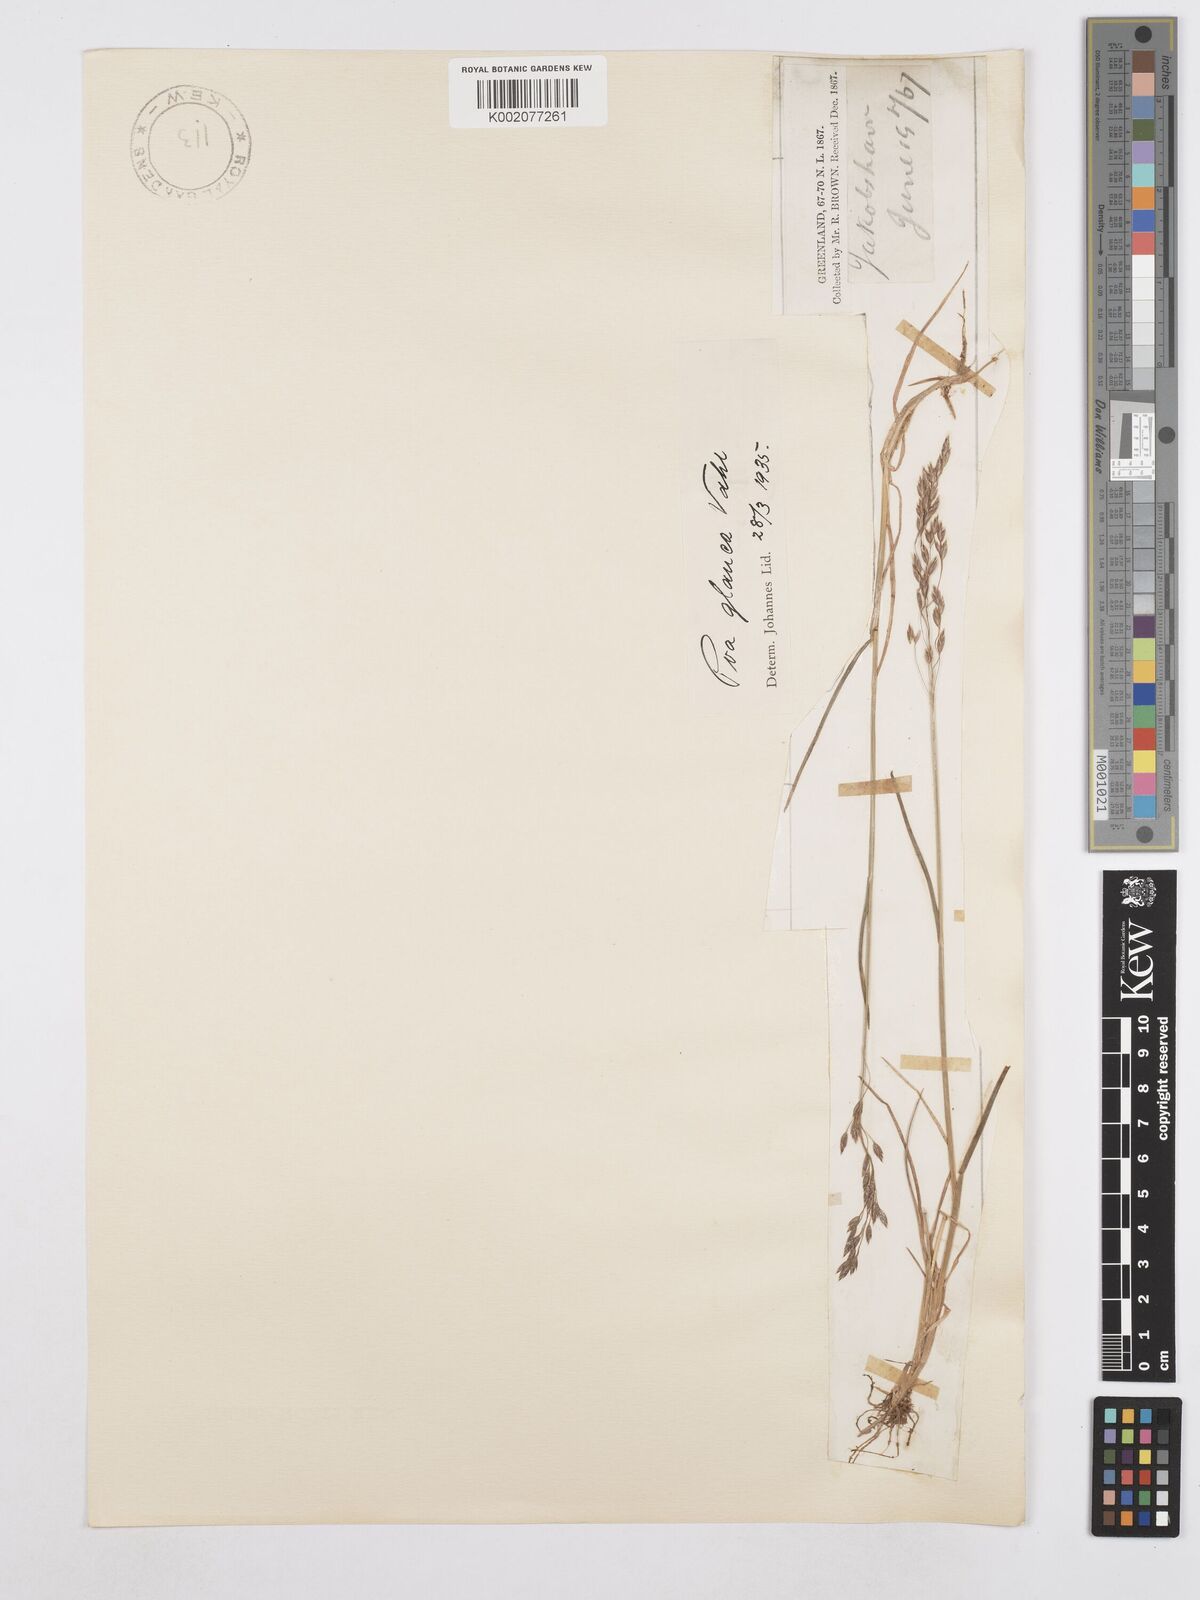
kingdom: Plantae
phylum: Tracheophyta
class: Liliopsida
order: Poales
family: Poaceae
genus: Poa
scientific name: Poa glauca
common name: Glaucous bluegrass
